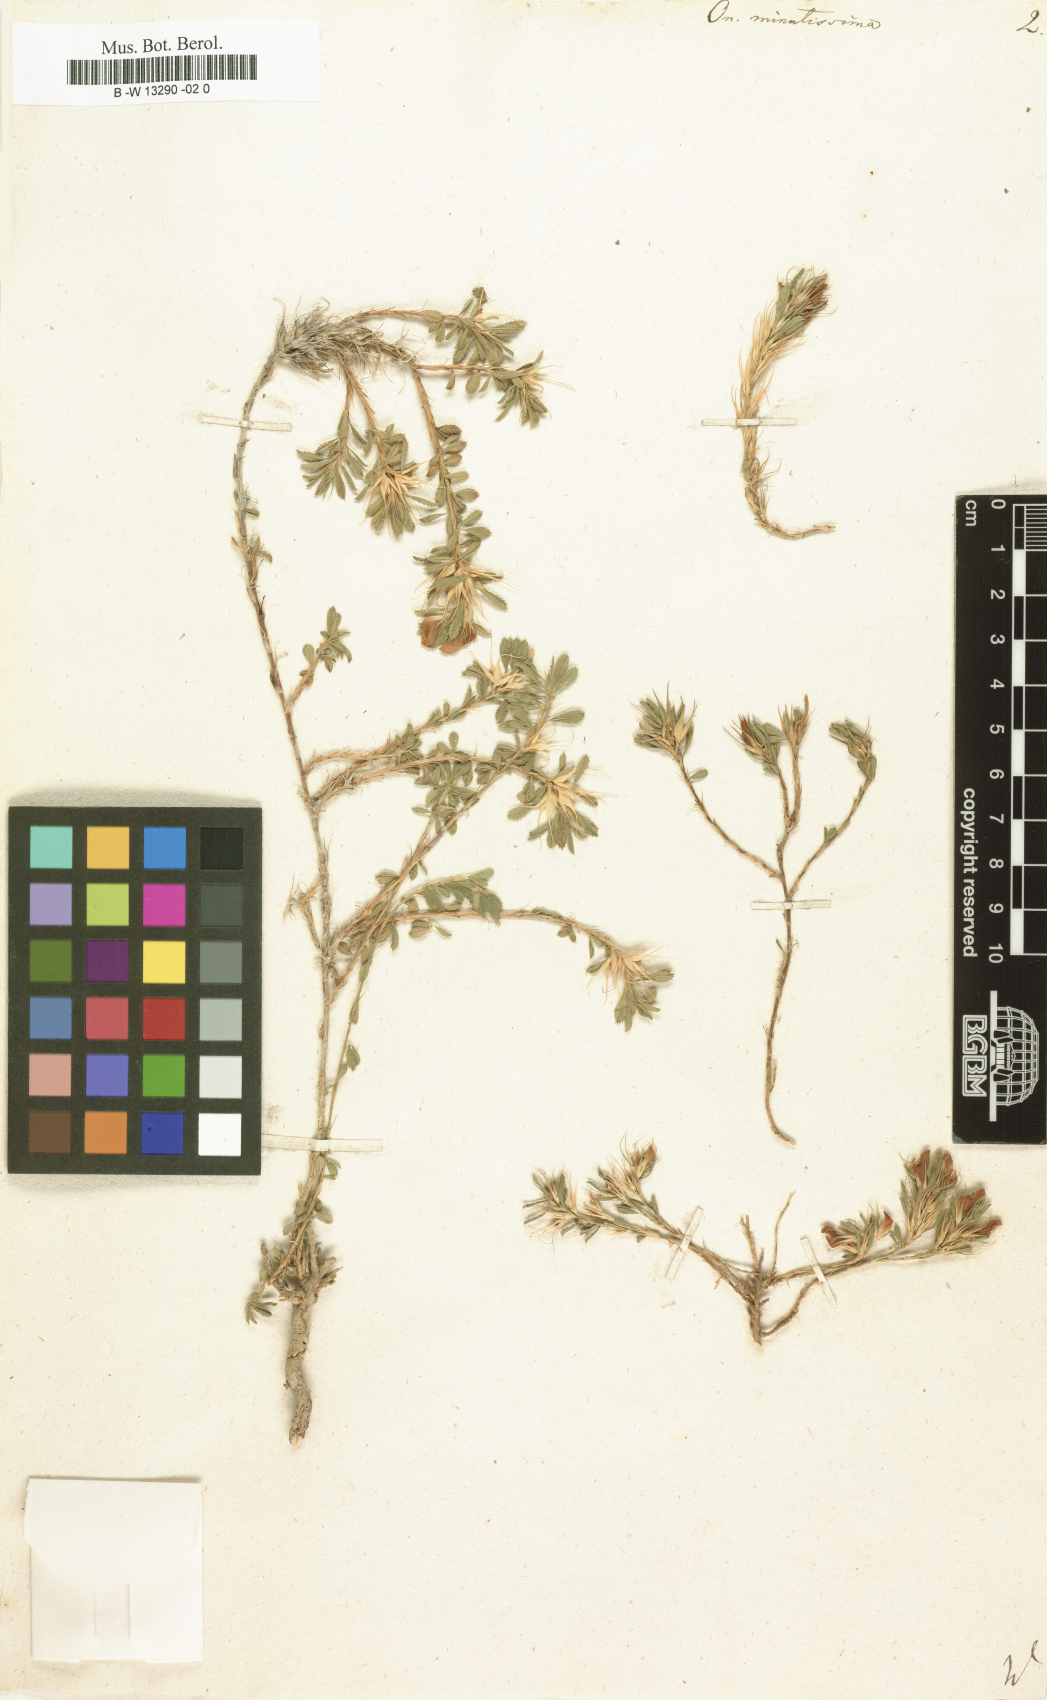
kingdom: Plantae
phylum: Tracheophyta
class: Magnoliopsida
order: Fabales
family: Fabaceae
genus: Ononis
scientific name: Ononis pusilla
